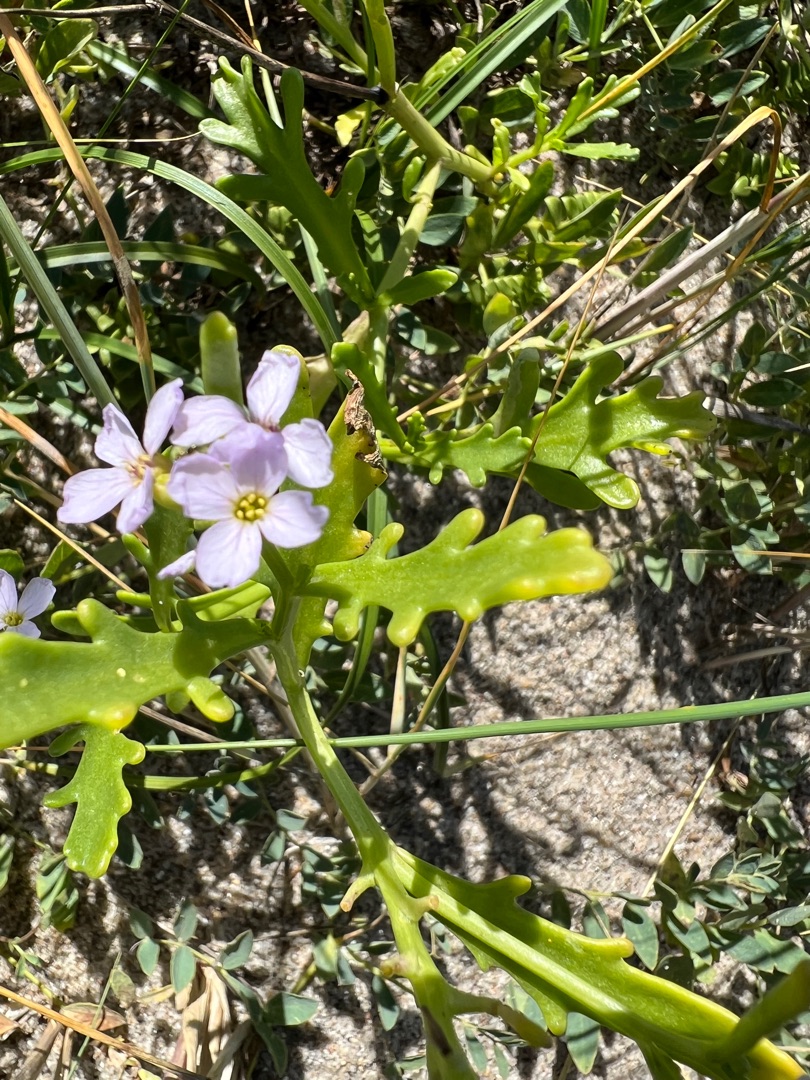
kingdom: Plantae
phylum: Tracheophyta
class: Magnoliopsida
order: Brassicales
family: Brassicaceae
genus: Cakile
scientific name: Cakile maritima
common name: Strandsennep
